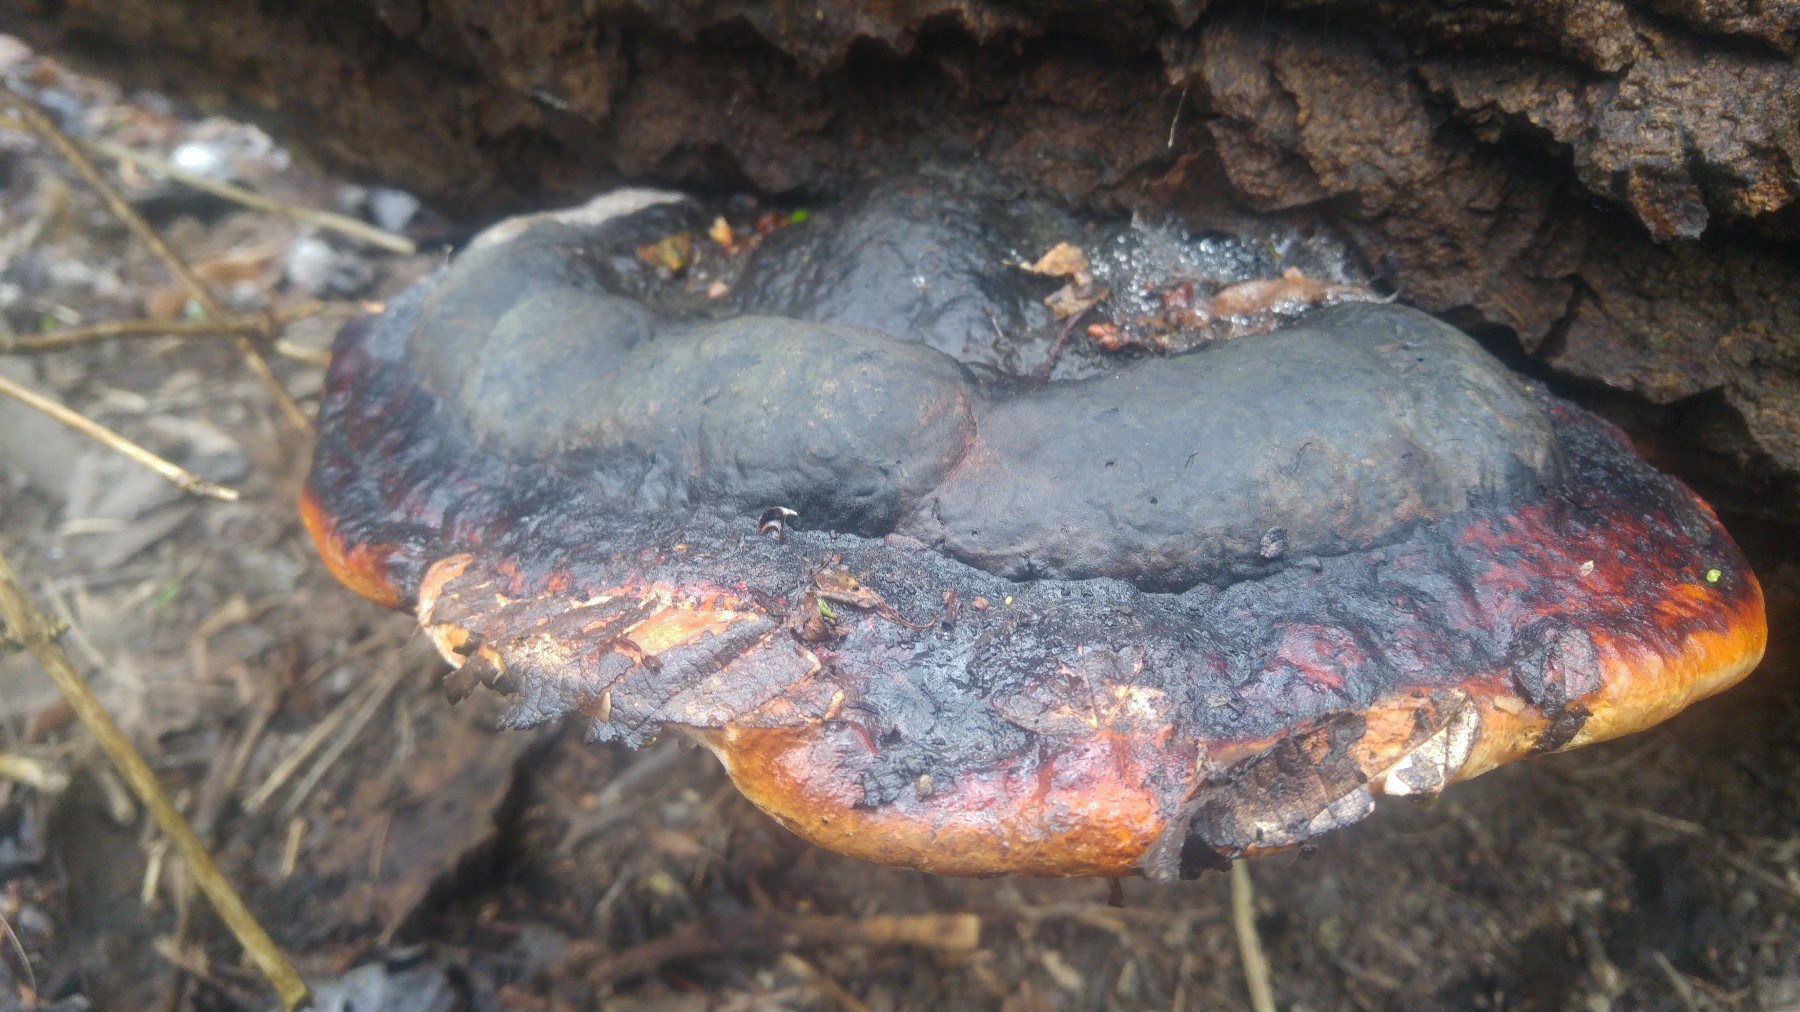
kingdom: Fungi
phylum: Basidiomycota
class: Agaricomycetes
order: Polyporales
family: Fomitopsidaceae
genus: Fomitopsis
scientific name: Fomitopsis pinicola
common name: randbæltet hovporesvamp
